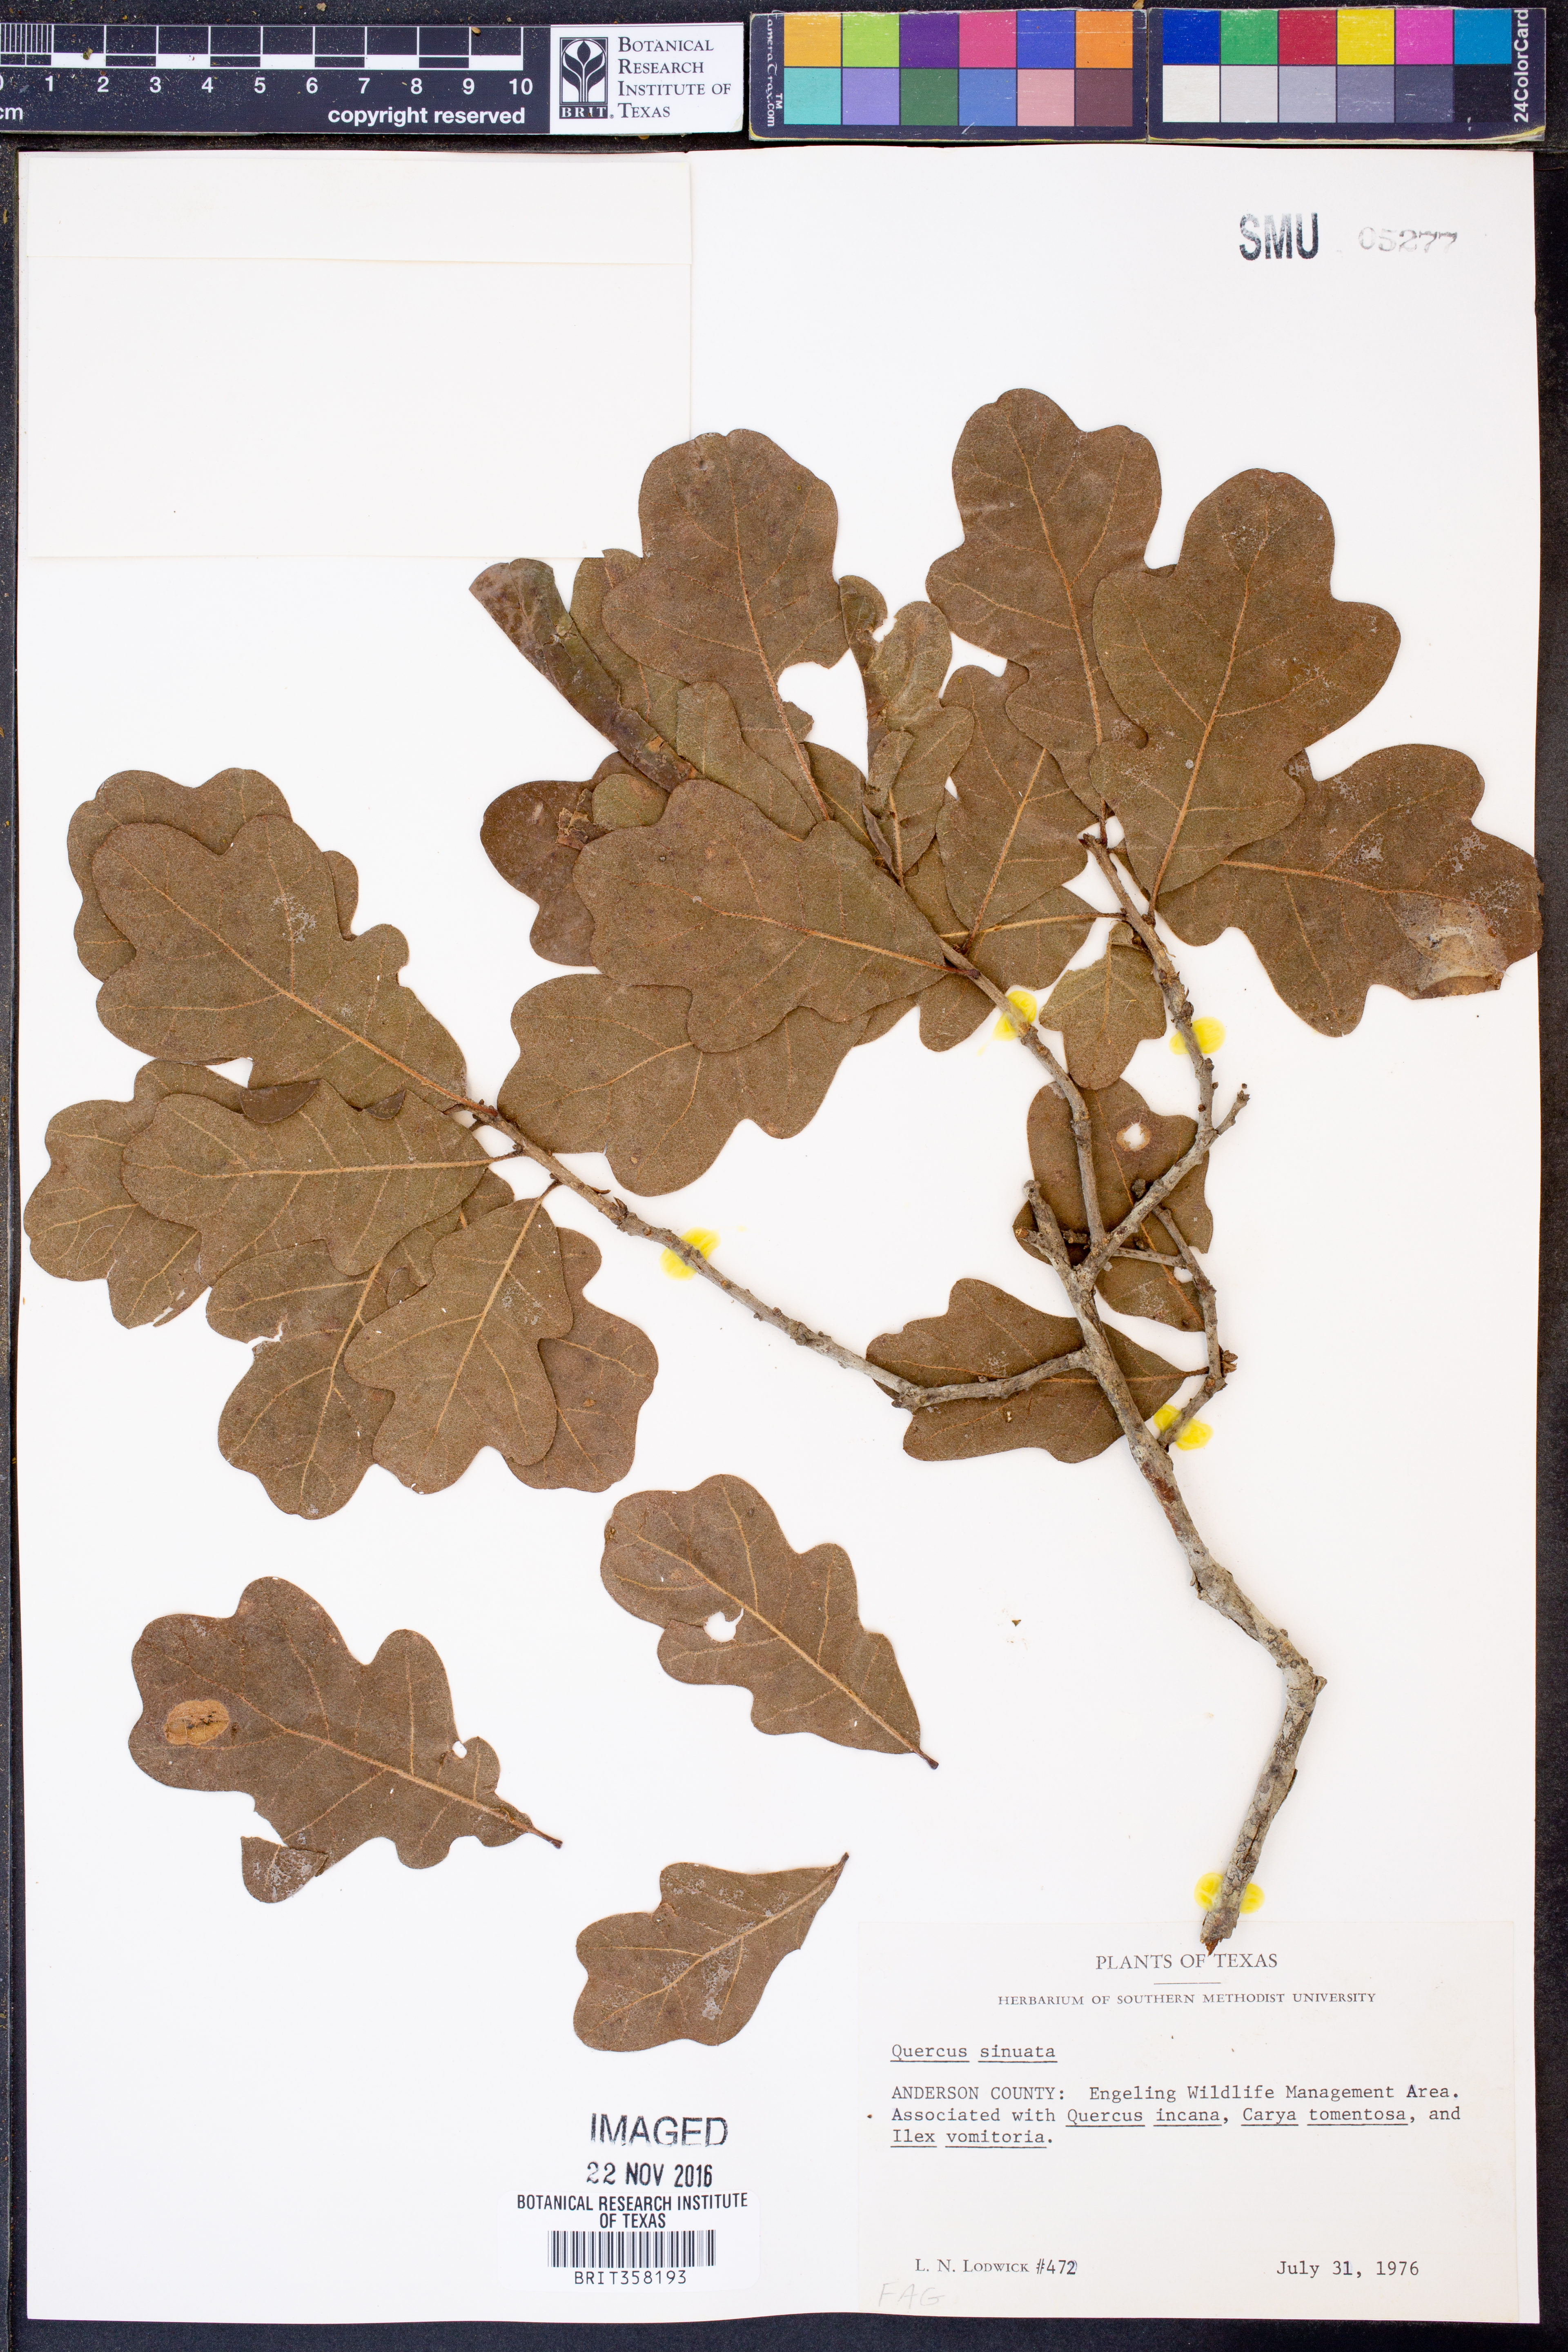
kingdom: Plantae
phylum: Tracheophyta
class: Magnoliopsida
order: Fagales
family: Fagaceae
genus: Quercus
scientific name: Quercus sinuata
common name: Durand oak
